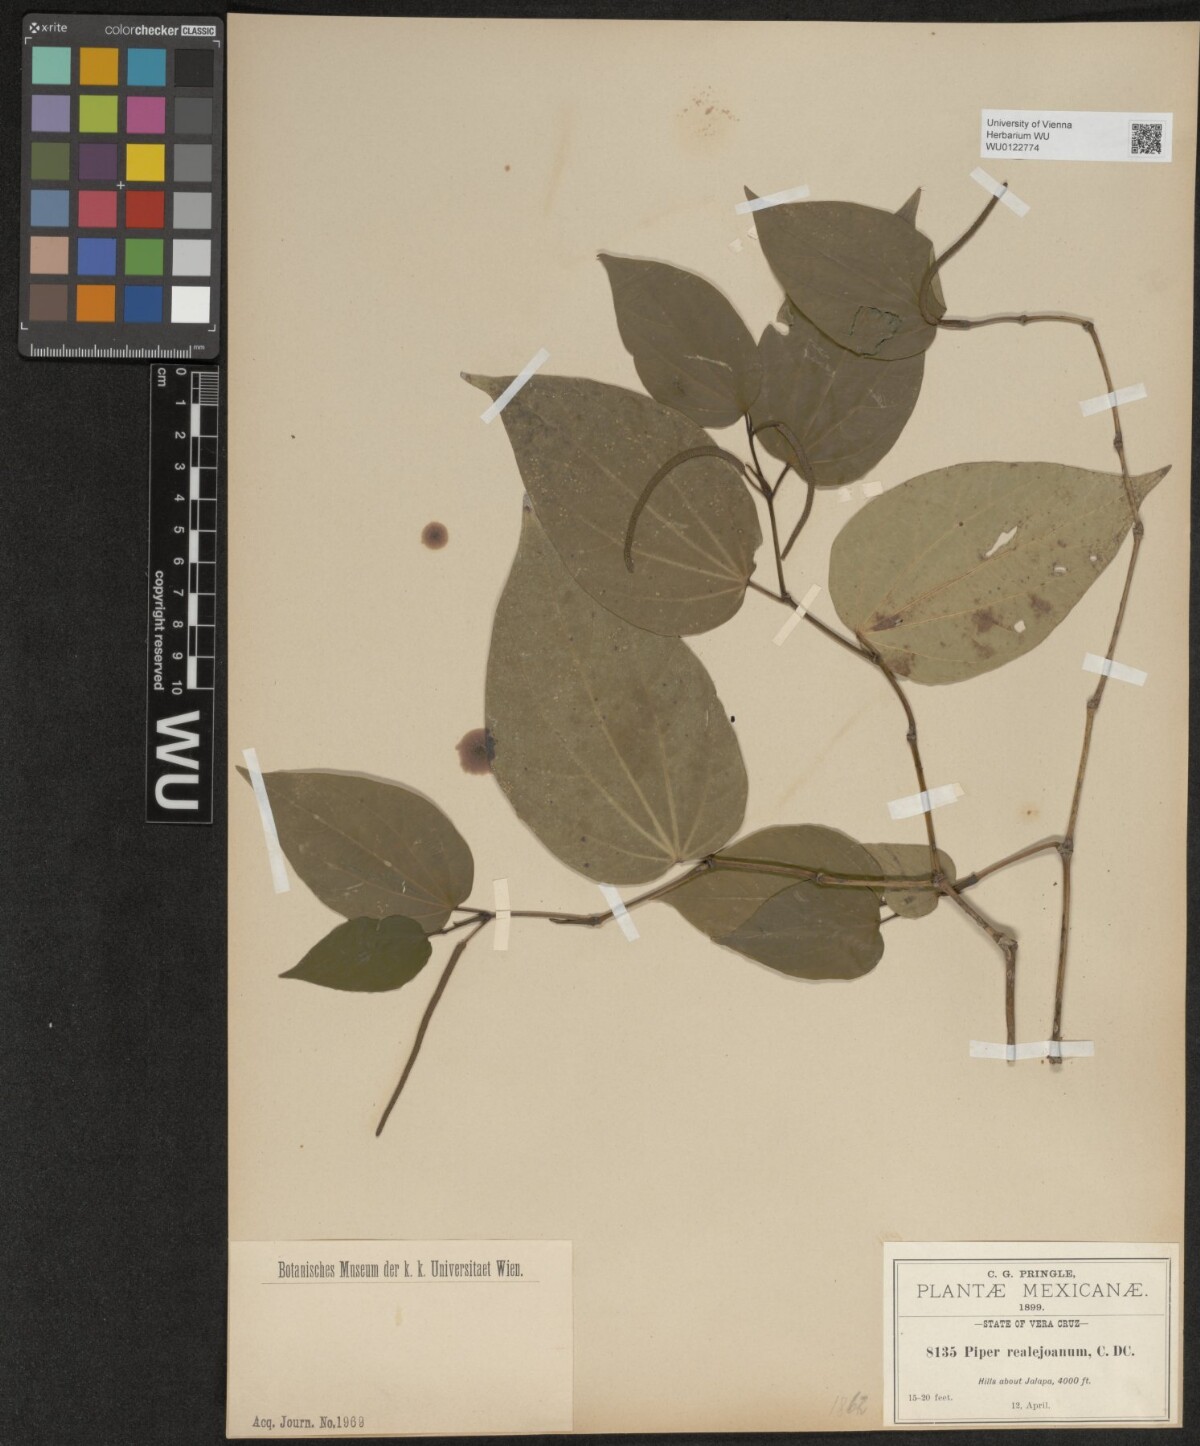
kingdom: Plantae
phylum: Tracheophyta
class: Magnoliopsida
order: Piperales
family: Piperaceae
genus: Piper
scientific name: Piper decrescens
